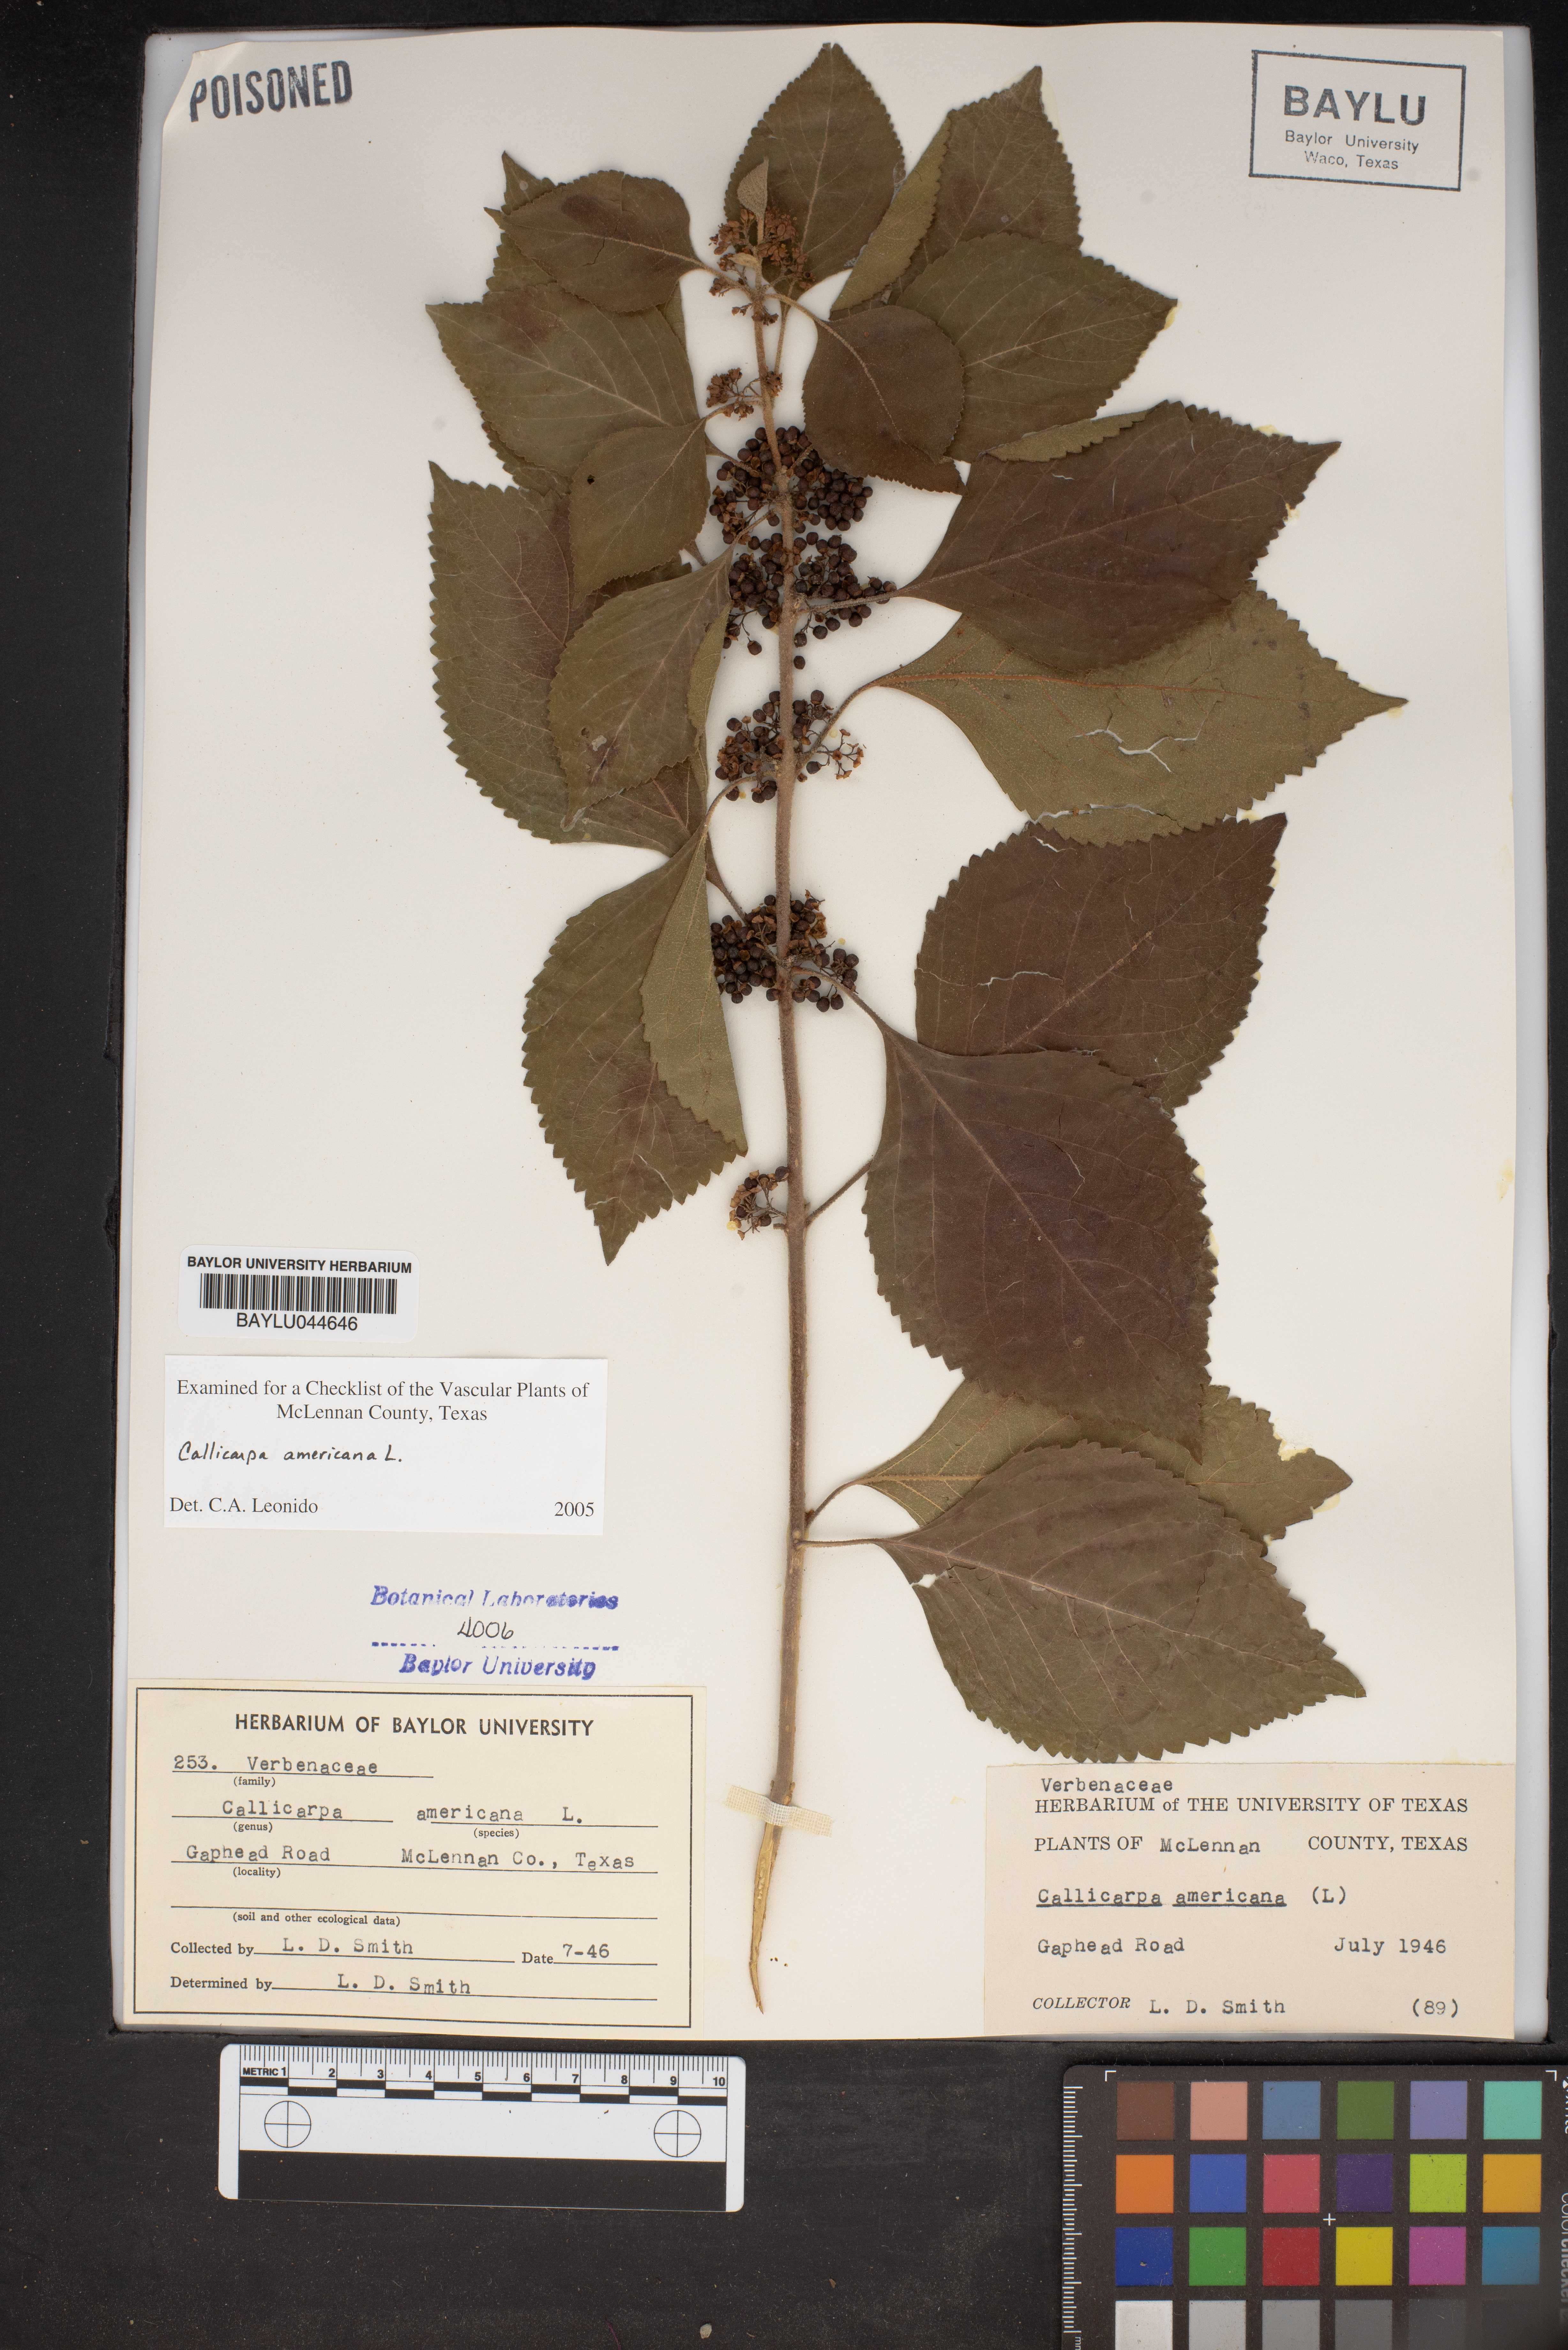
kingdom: Plantae
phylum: Tracheophyta
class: Magnoliopsida
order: Lamiales
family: Lamiaceae
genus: Callicarpa
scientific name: Callicarpa americana
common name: American beautyberry
